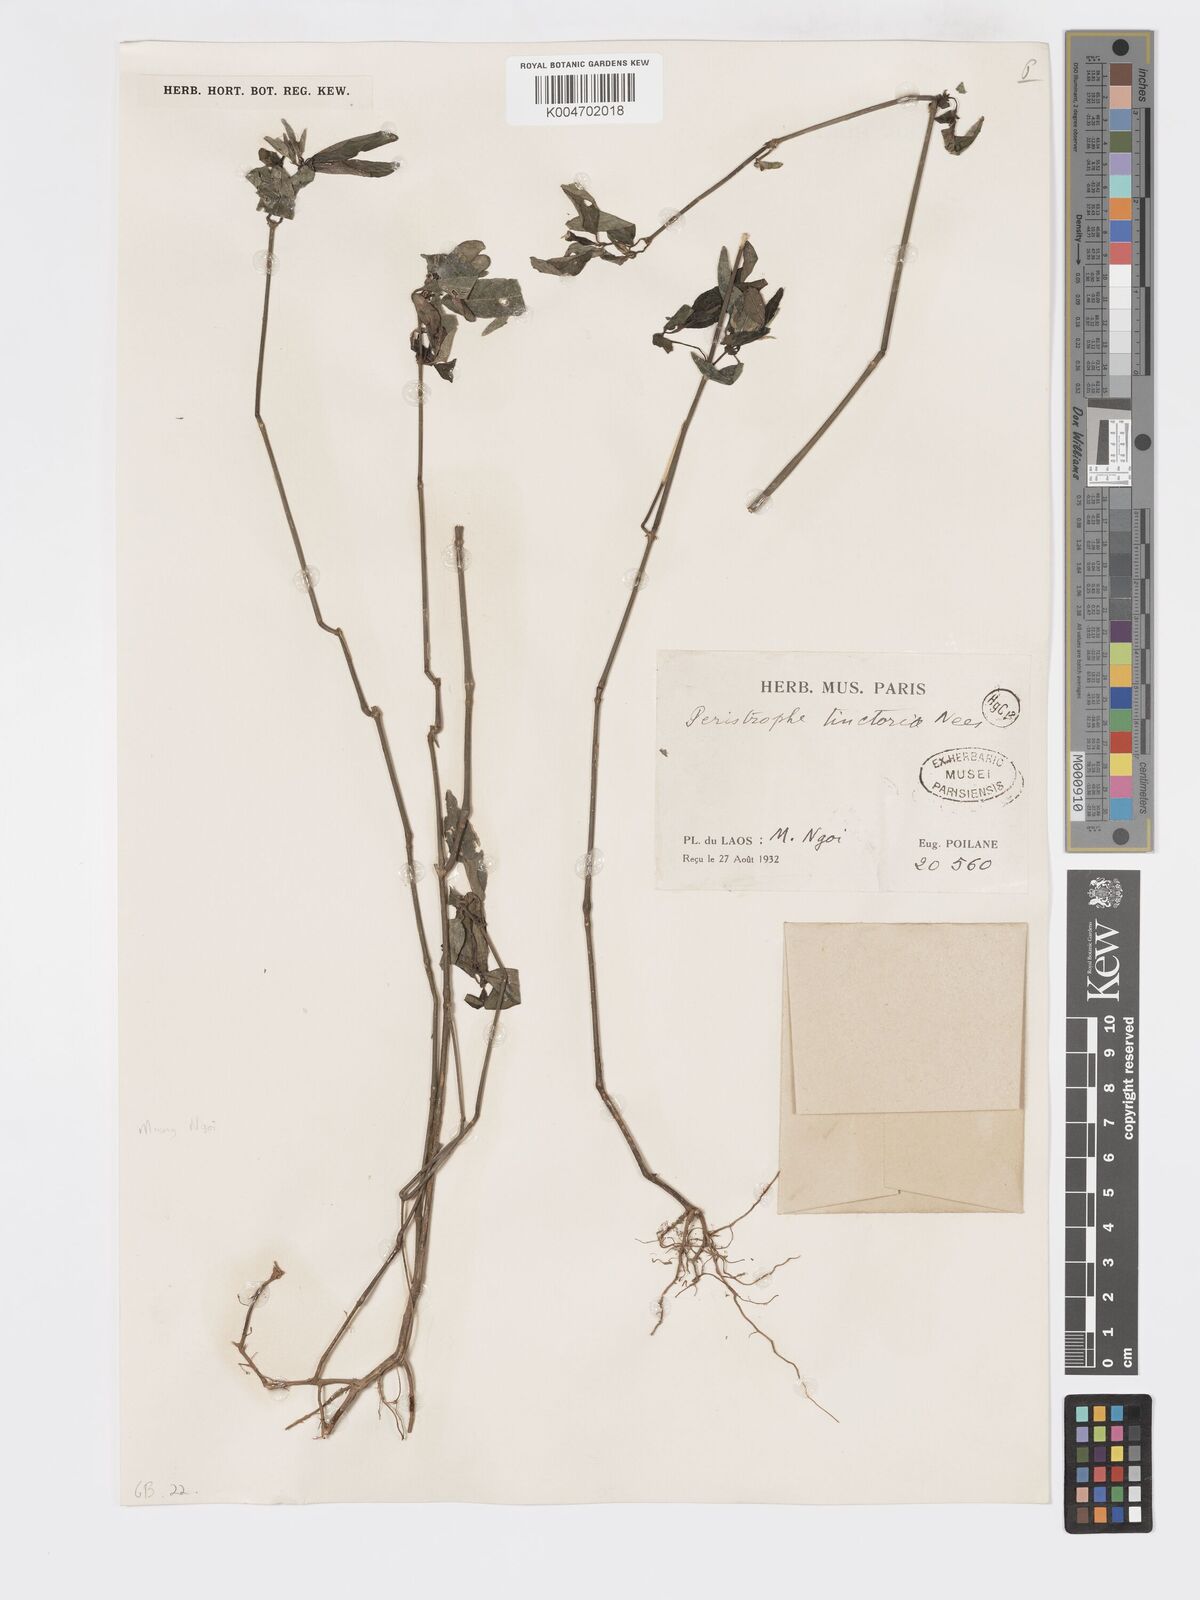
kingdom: Plantae
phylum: Tracheophyta
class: Magnoliopsida
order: Lamiales
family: Acanthaceae
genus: Dicliptera
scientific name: Dicliptera tinctoria
